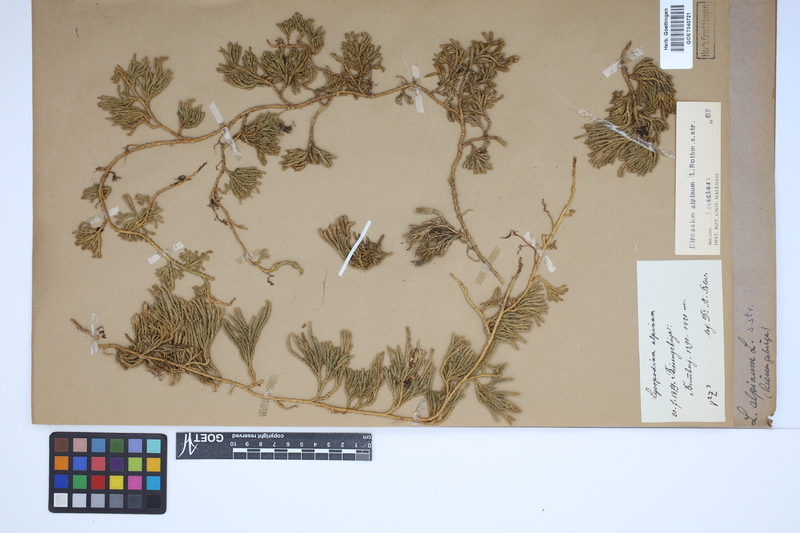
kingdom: Plantae
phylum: Tracheophyta
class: Lycopodiopsida
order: Lycopodiales
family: Lycopodiaceae
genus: Diphasiastrum
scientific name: Diphasiastrum alpinum
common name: Alpine clubmoss
